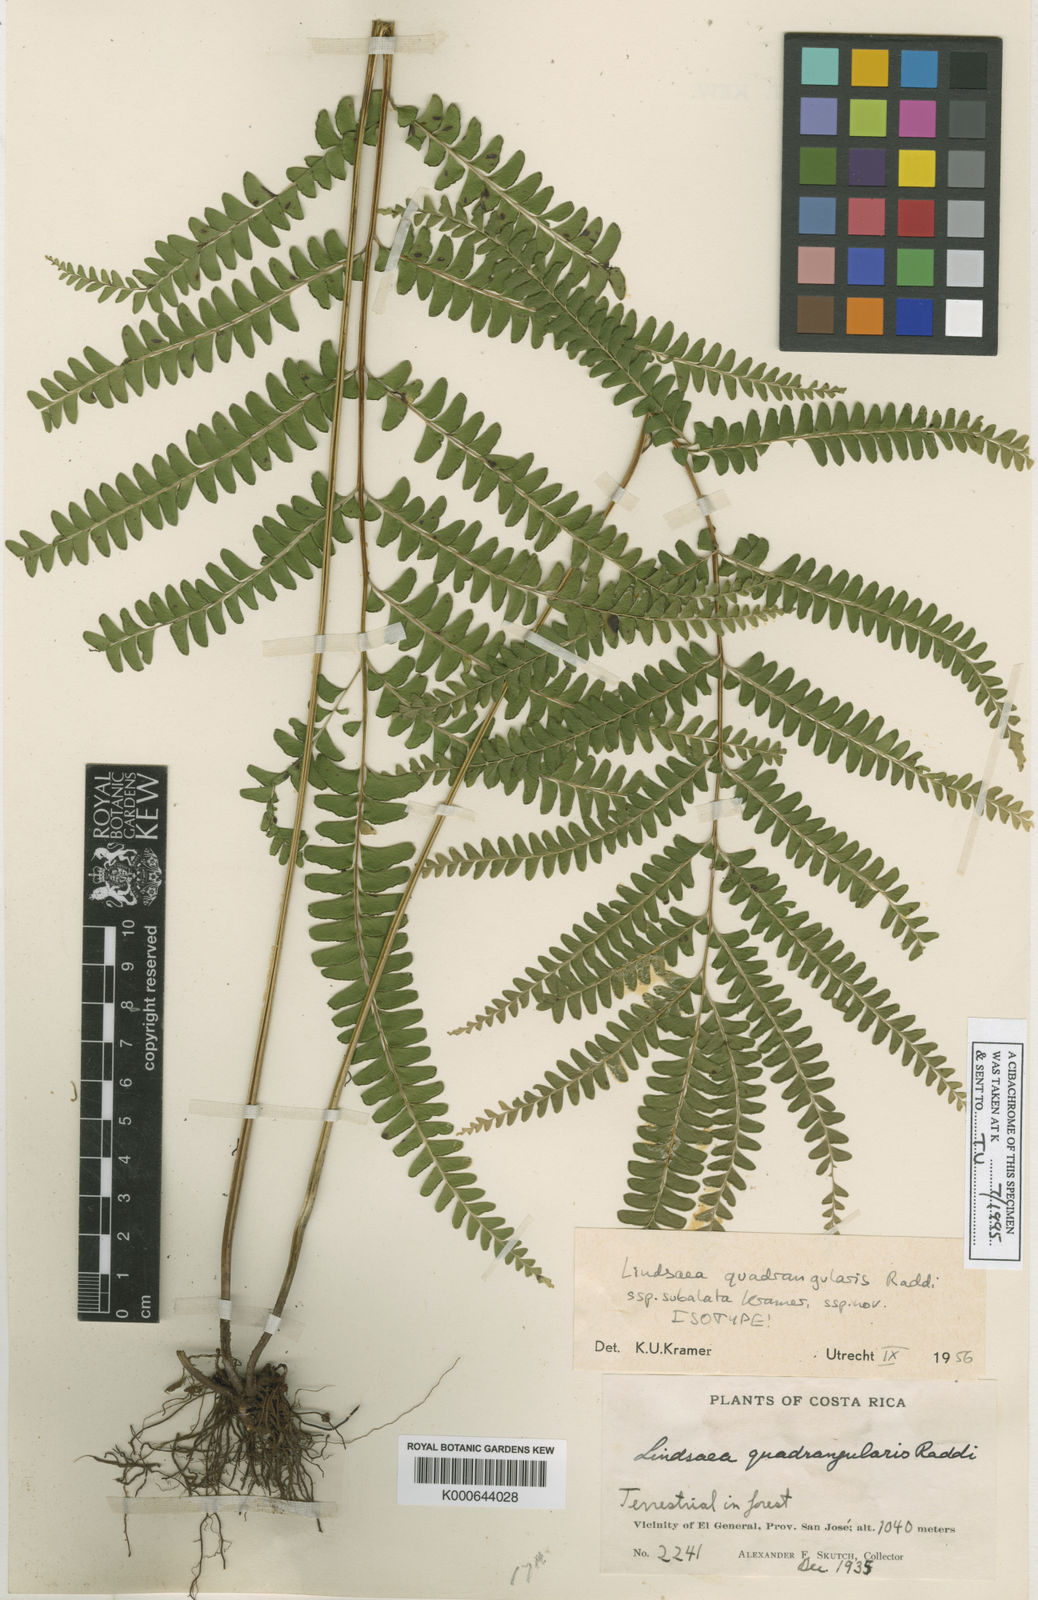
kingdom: Plantae
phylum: Tracheophyta
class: Polypodiopsida
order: Polypodiales
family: Lindsaeaceae
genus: Lindsaea
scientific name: Lindsaea subalata
